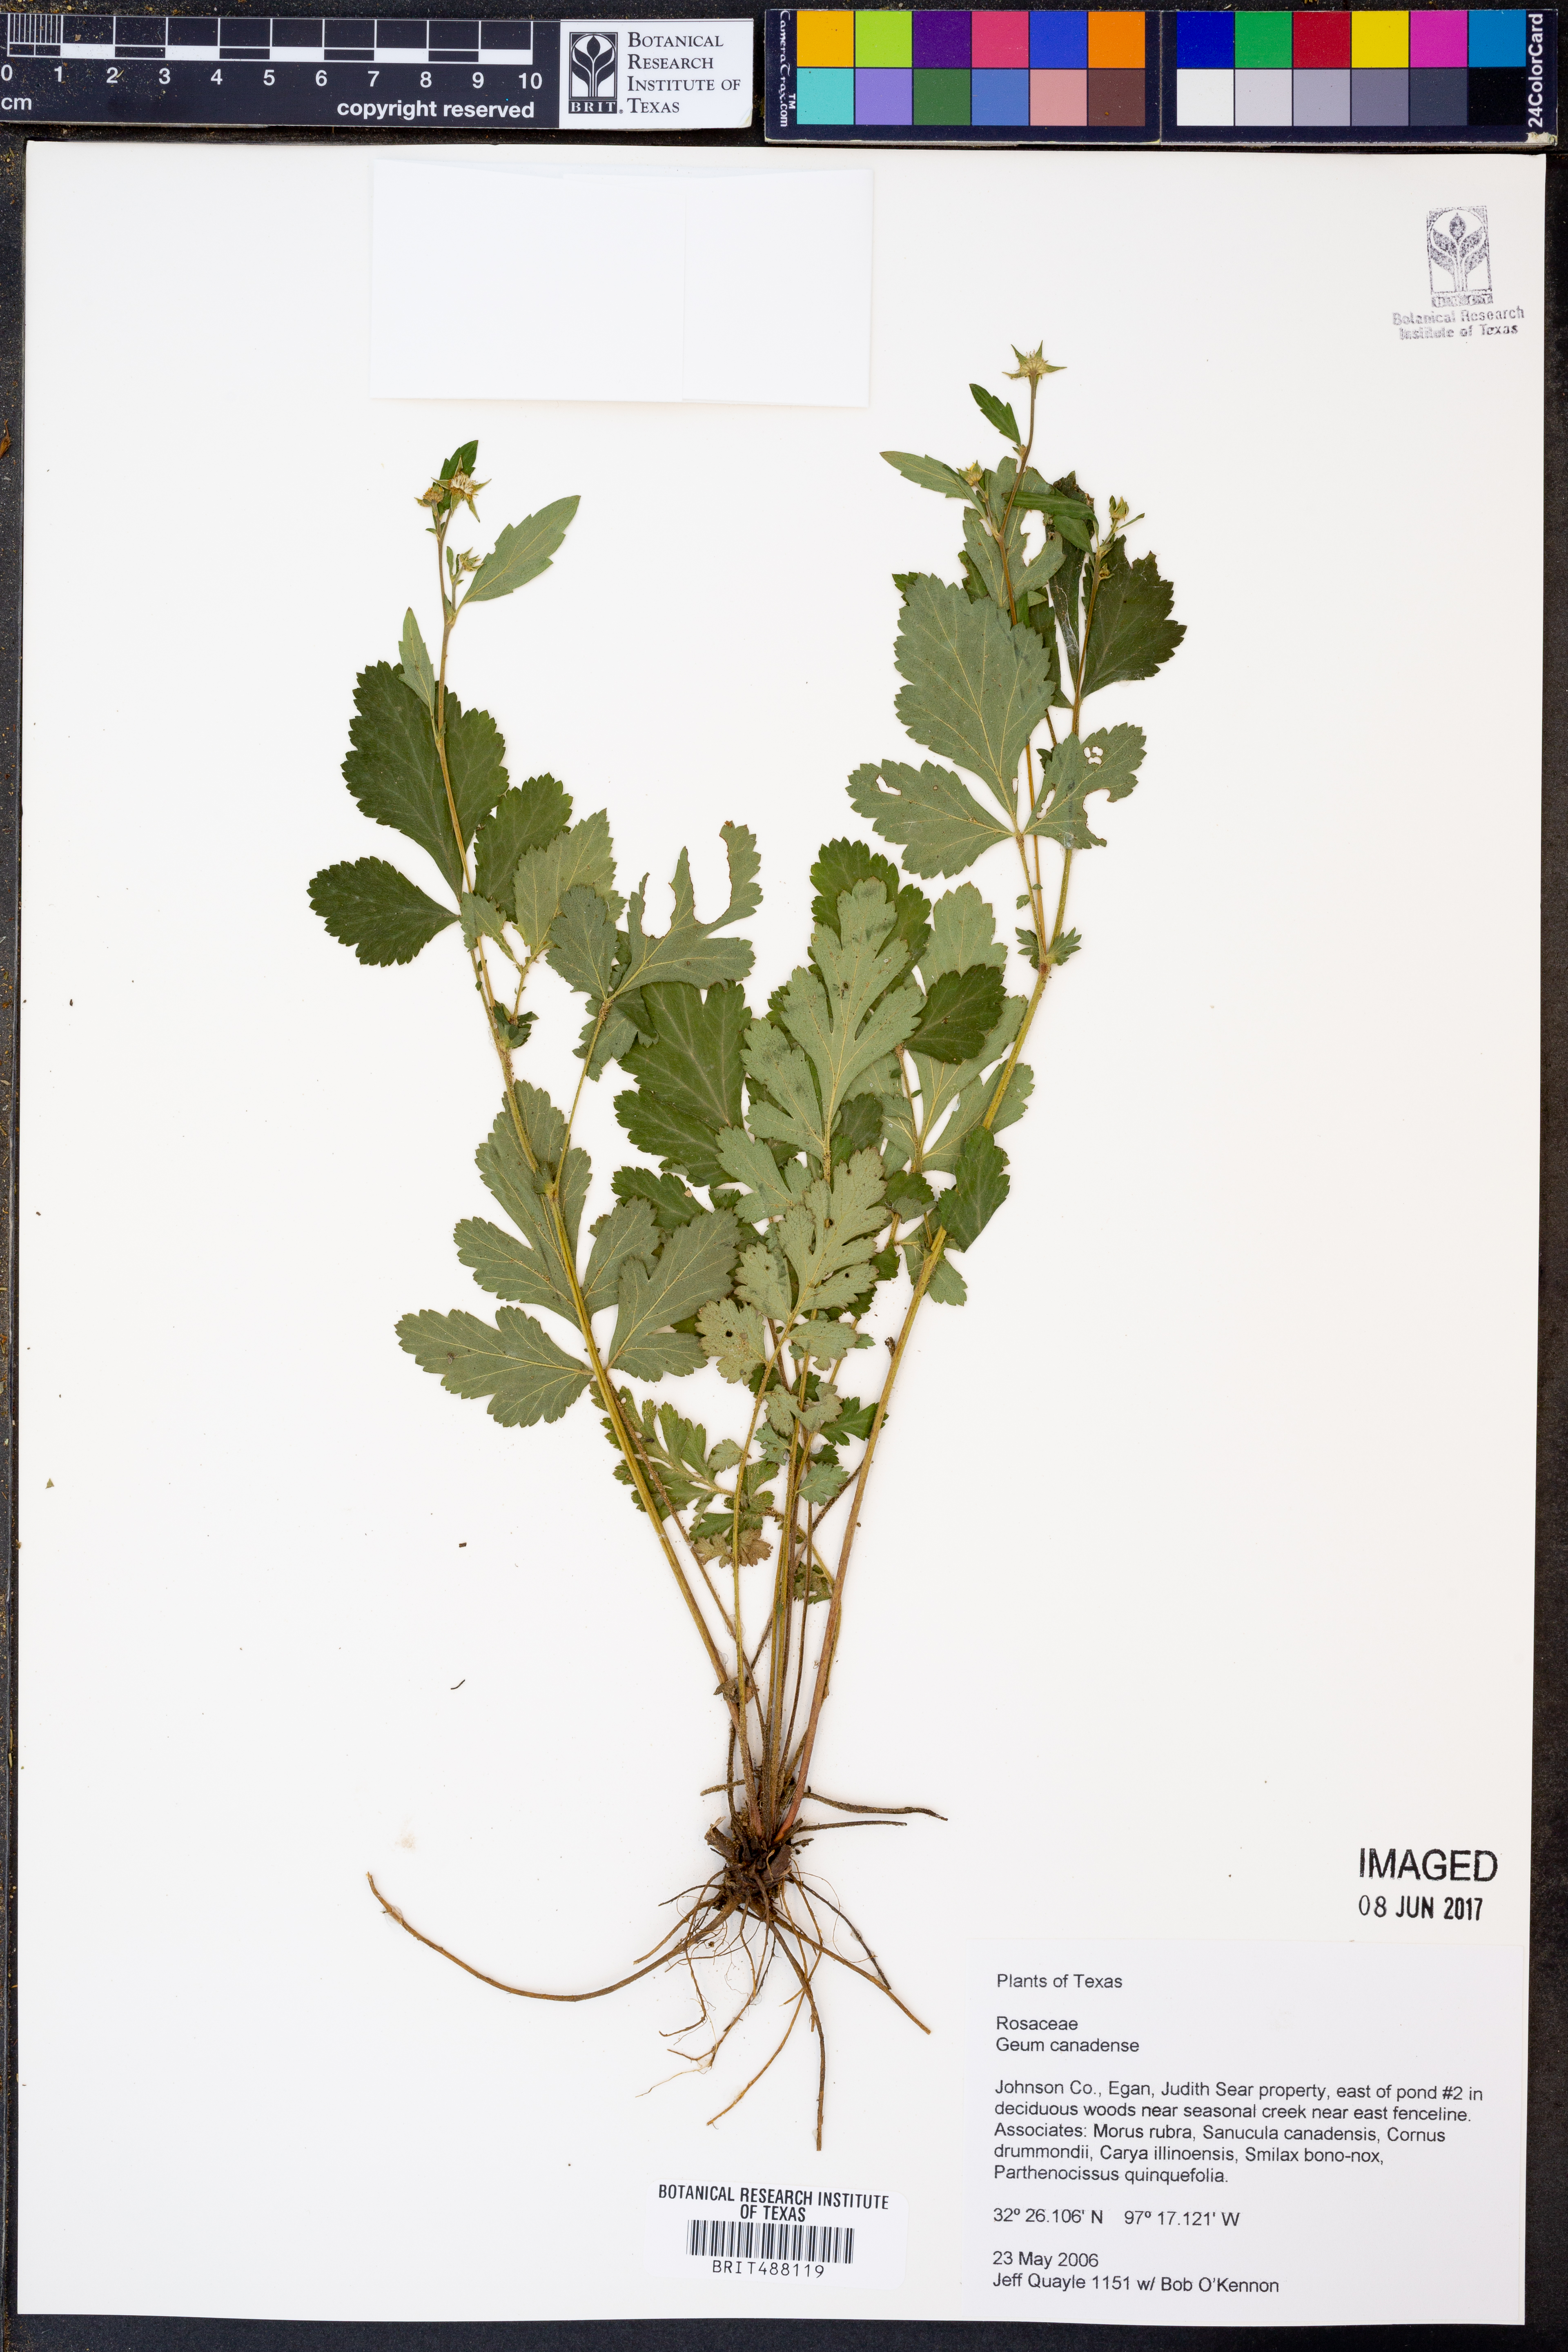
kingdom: Plantae
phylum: Tracheophyta
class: Magnoliopsida
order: Rosales
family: Rosaceae
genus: Geum
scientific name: Geum canadense
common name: White avens
